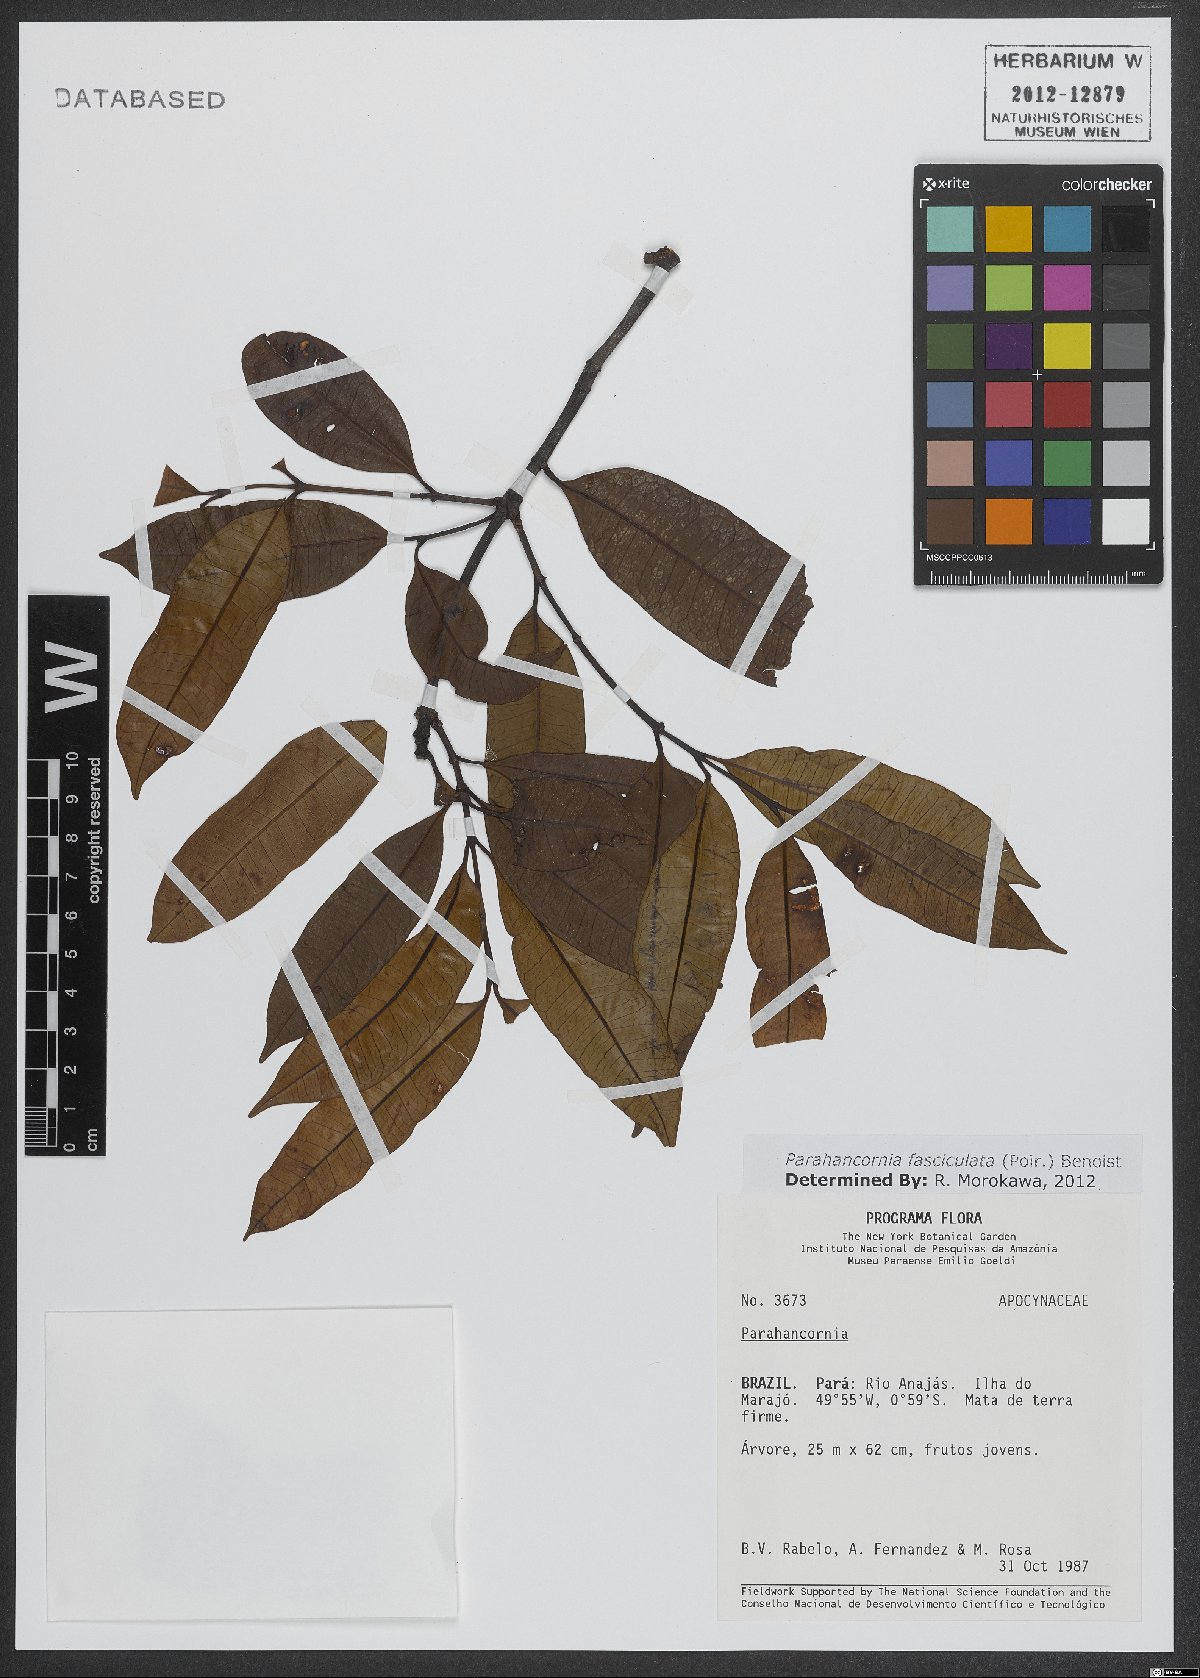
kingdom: Plantae
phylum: Tracheophyta
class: Magnoliopsida
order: Gentianales
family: Apocynaceae
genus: Parahancornia
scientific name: Parahancornia fasciculata
